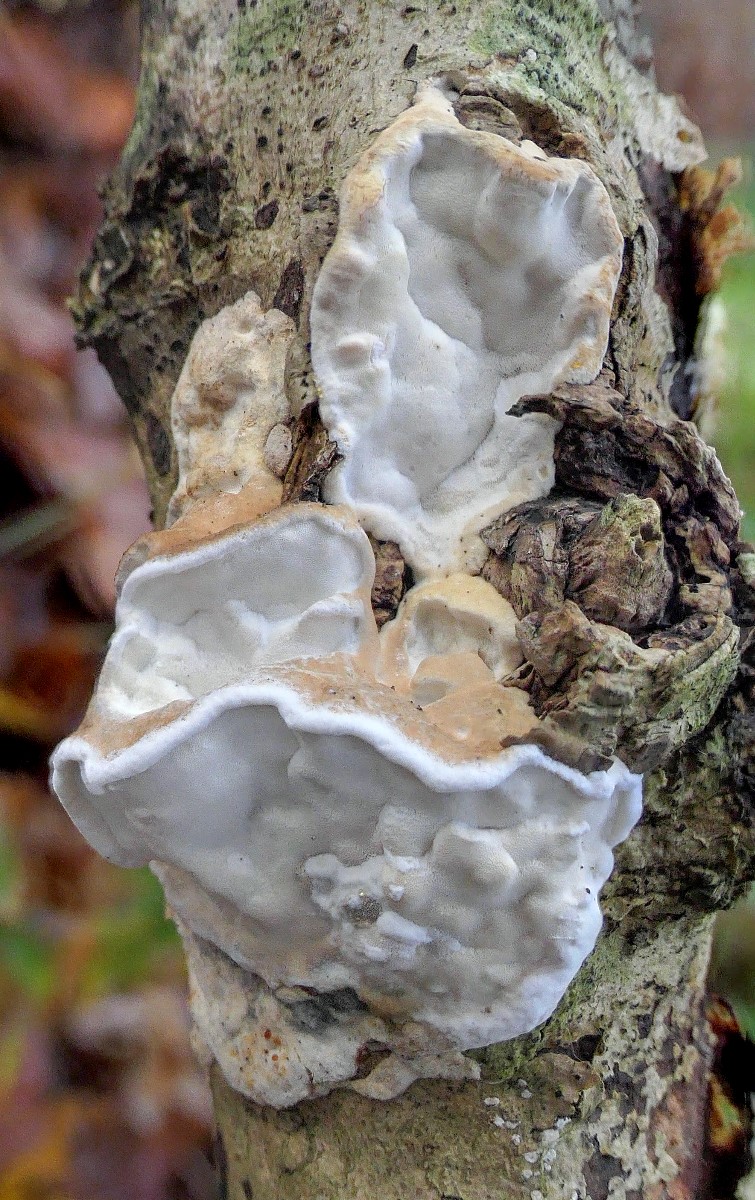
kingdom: Fungi
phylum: Basidiomycota
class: Agaricomycetes
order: Polyporales
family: Incrustoporiaceae
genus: Skeletocutis
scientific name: Skeletocutis nemoralis
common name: stor krystalporesvamp
